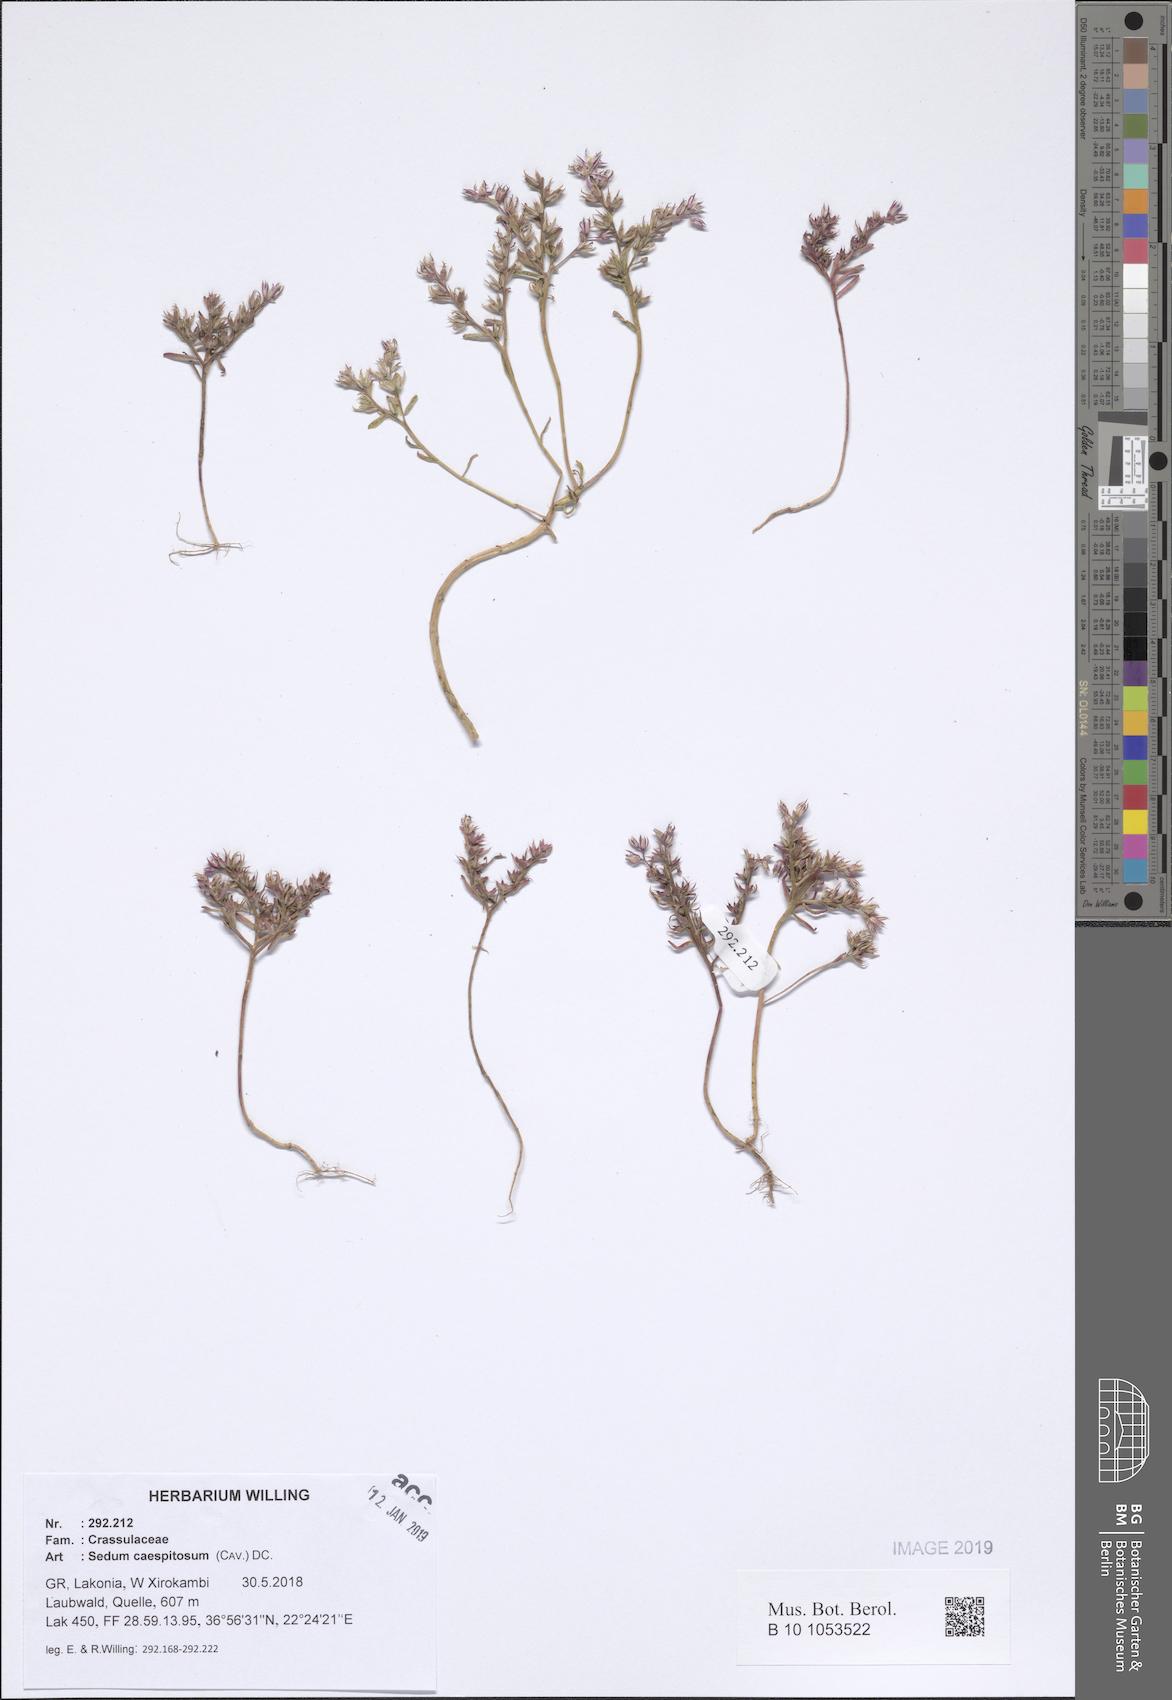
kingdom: Plantae
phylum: Tracheophyta
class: Magnoliopsida
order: Saxifragales
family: Crassulaceae
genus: Sedum
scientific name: Sedum cespitosum
